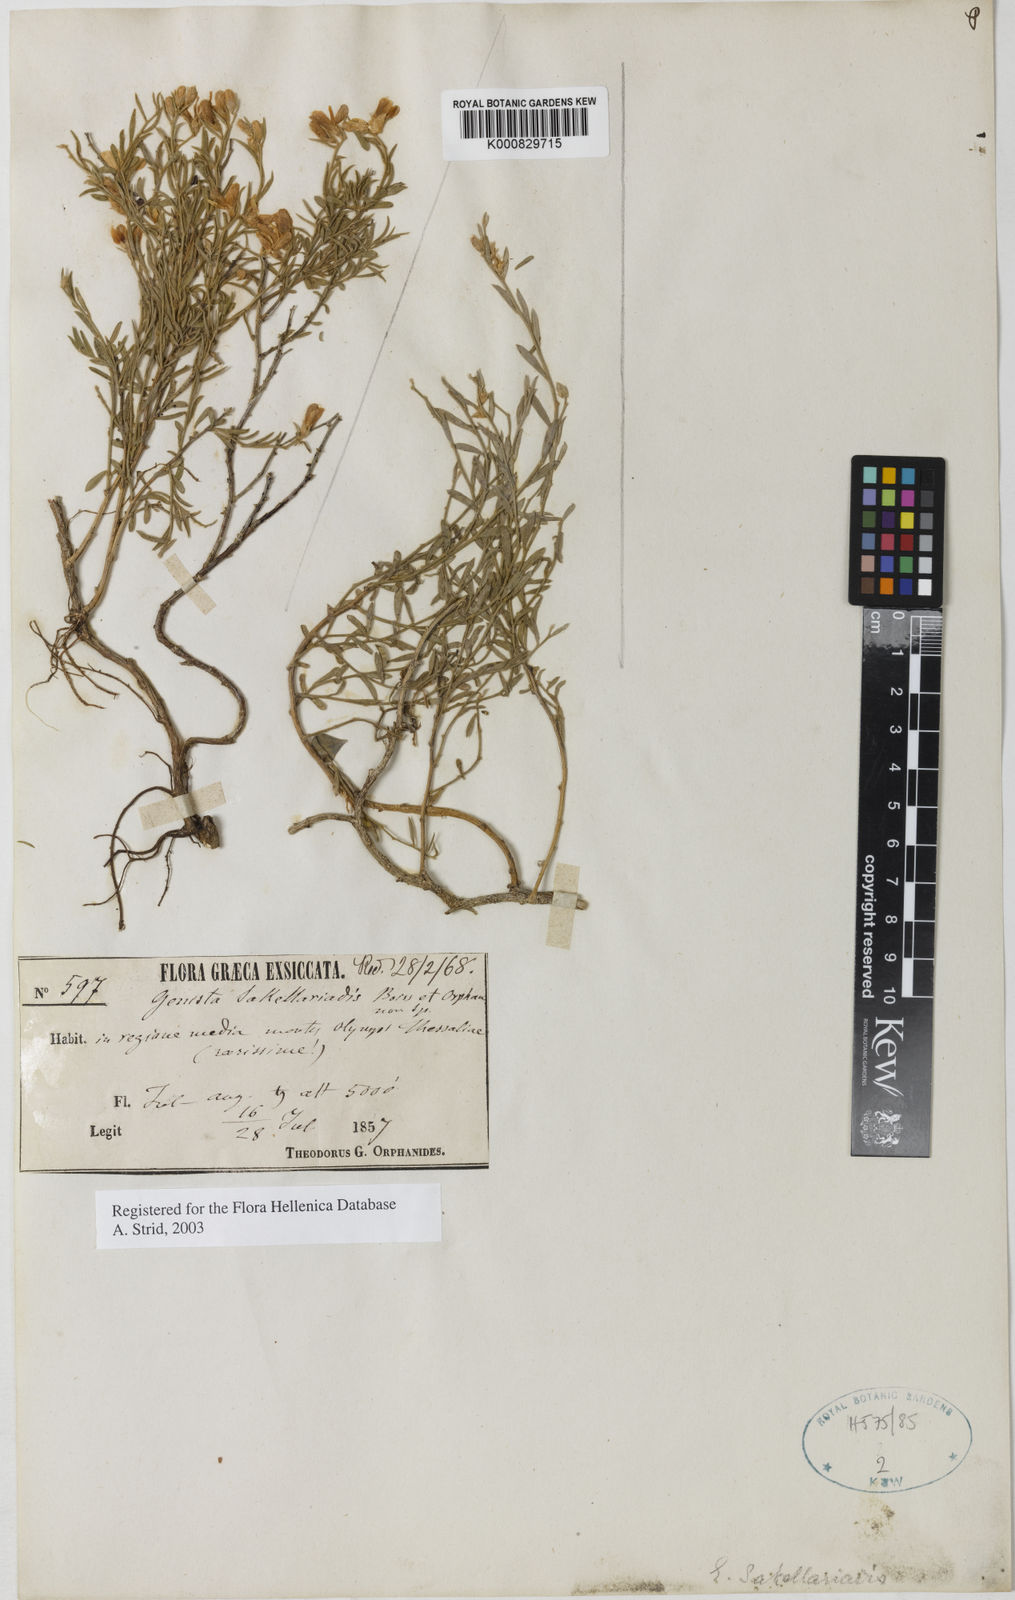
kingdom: Plantae
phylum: Tracheophyta
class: Magnoliopsida
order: Fabales
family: Fabaceae
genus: Genista
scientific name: Genista sakellariadis
